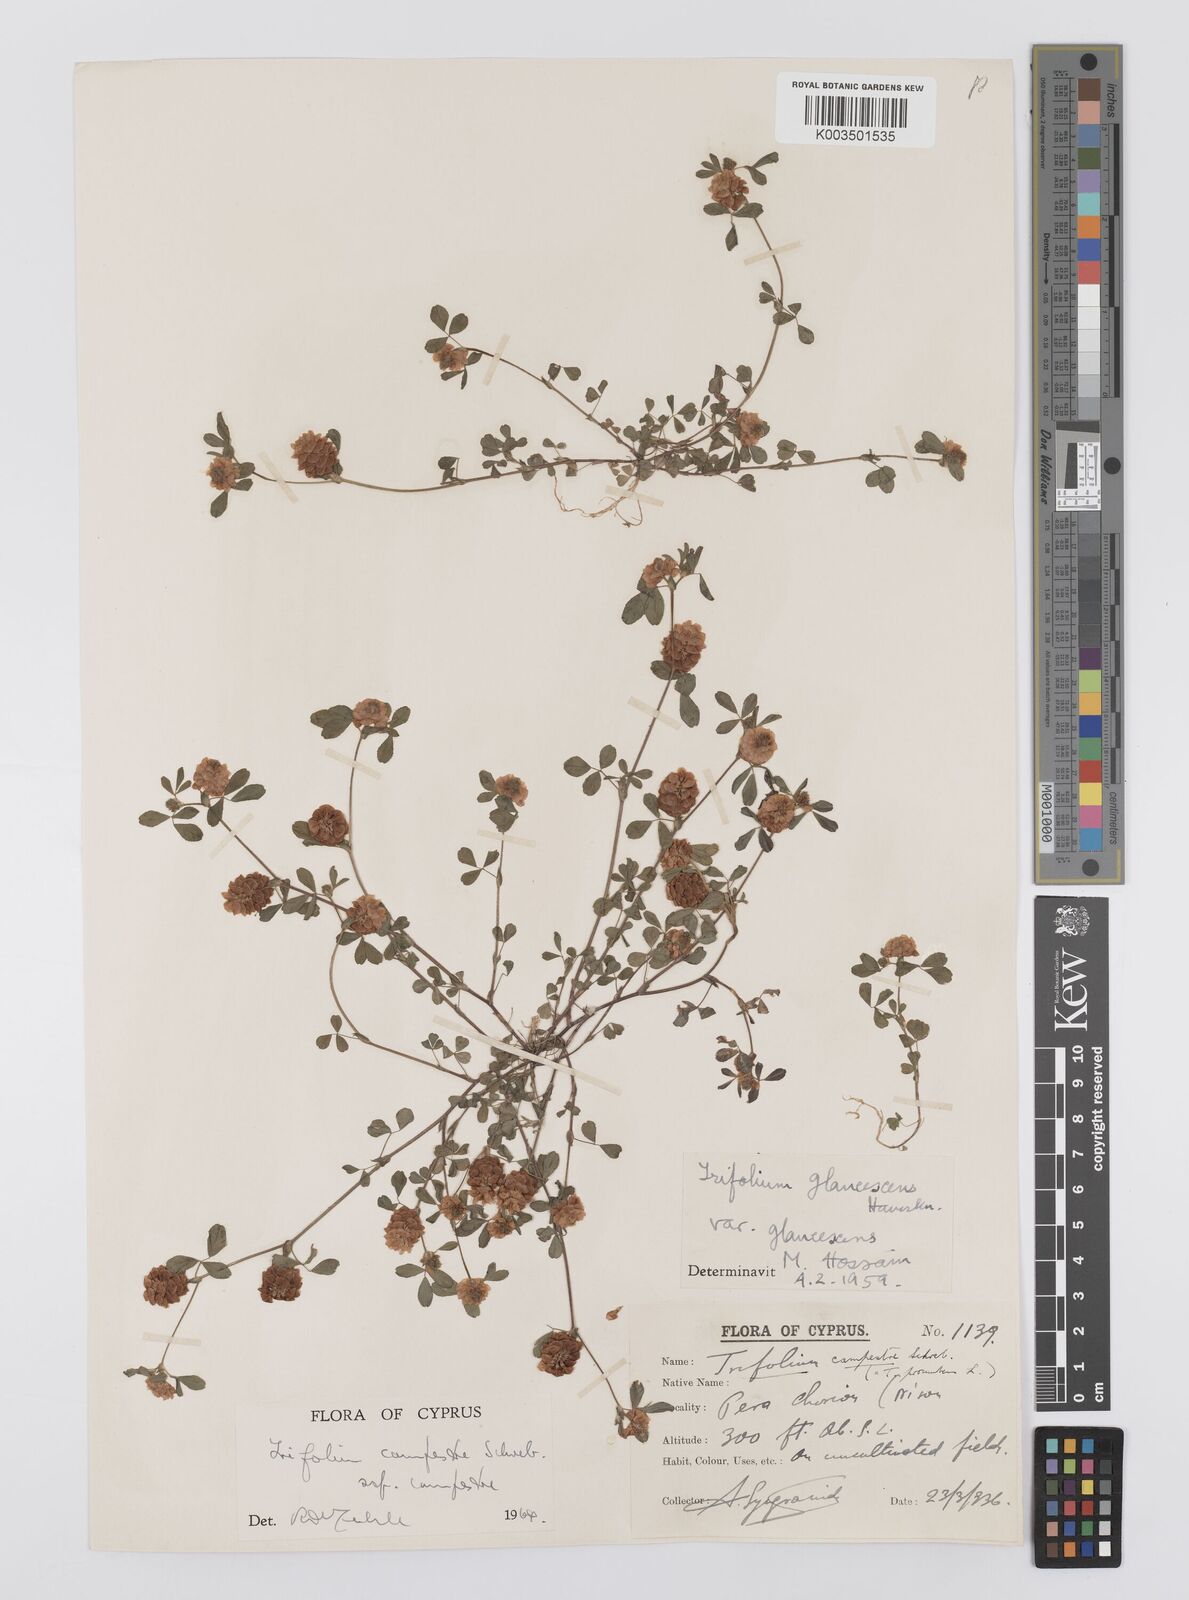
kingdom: Plantae
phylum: Tracheophyta
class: Magnoliopsida
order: Fabales
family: Fabaceae
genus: Trifolium
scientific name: Trifolium campestre
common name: Field clover
